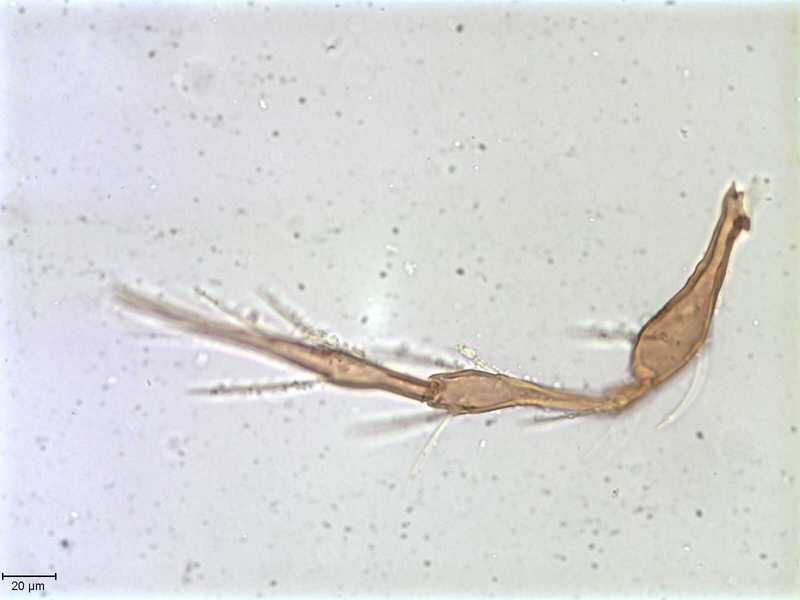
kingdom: Animalia
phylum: Arthropoda
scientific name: Arthropoda
